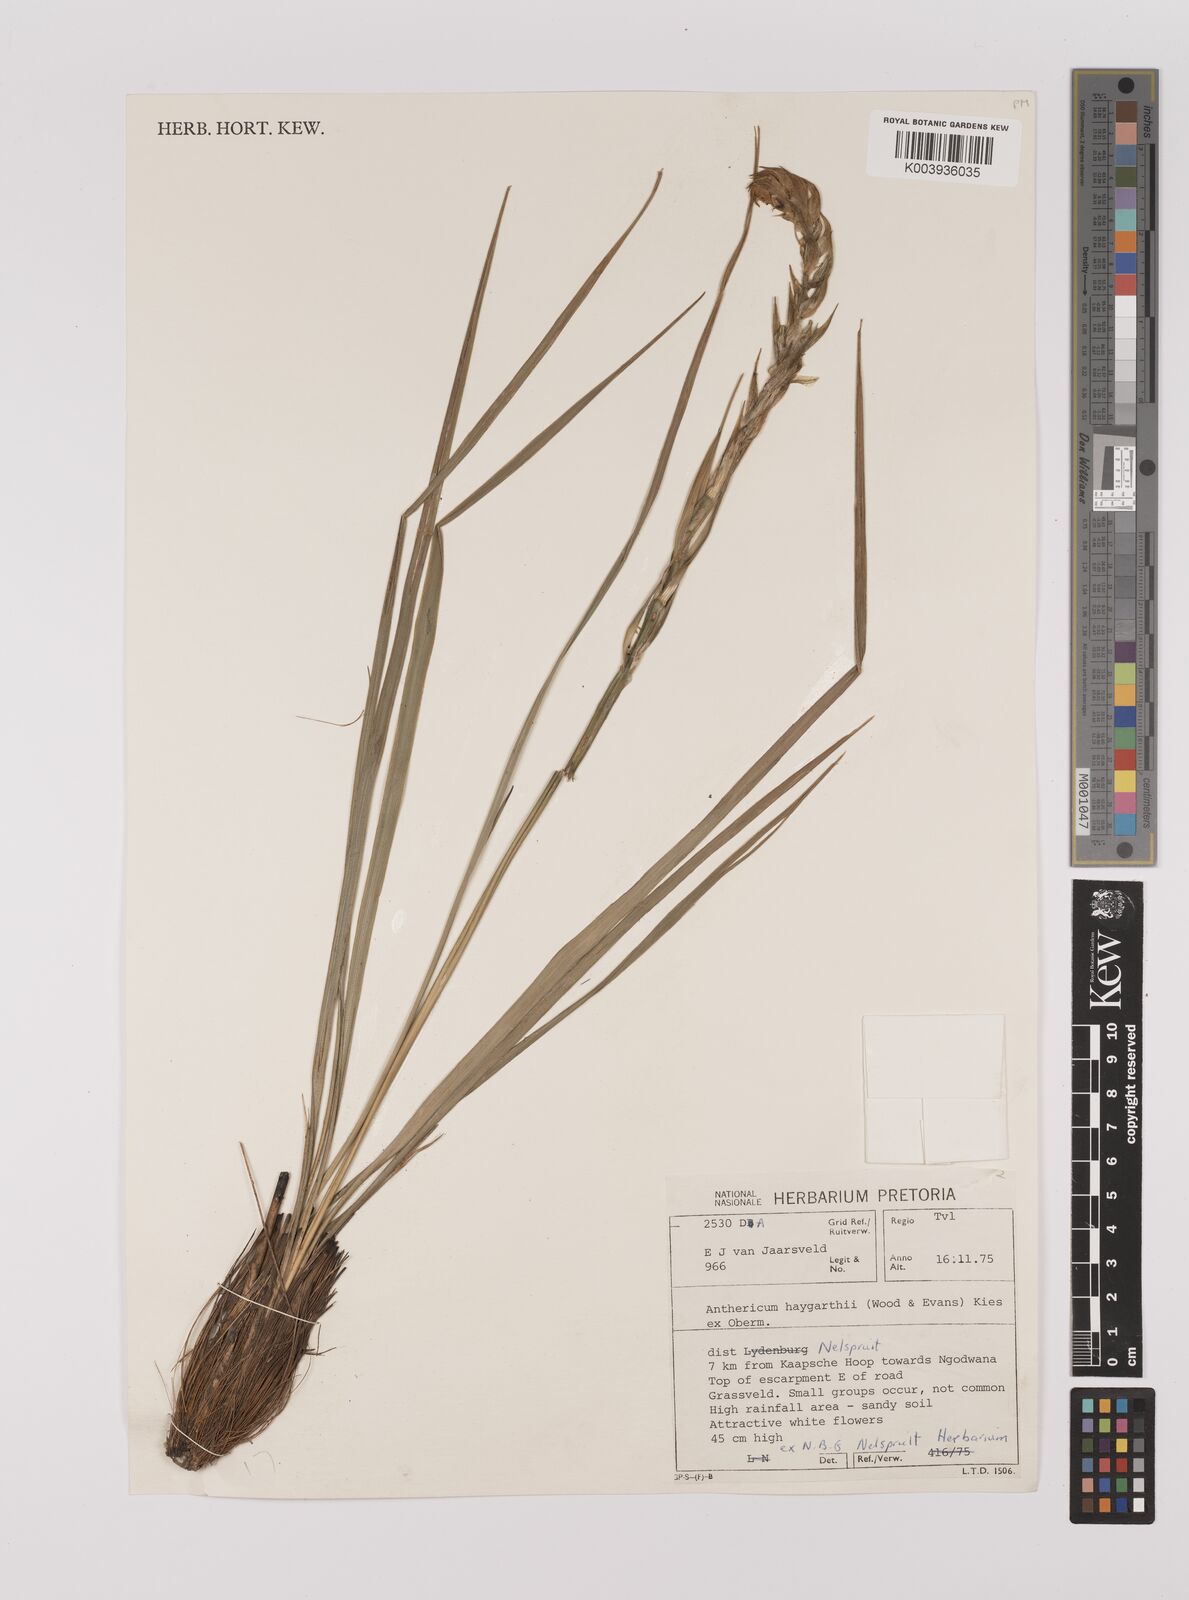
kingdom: Plantae
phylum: Tracheophyta
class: Liliopsida
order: Asparagales
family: Asparagaceae
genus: Chlorophytum
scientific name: Chlorophytum haygarthii
